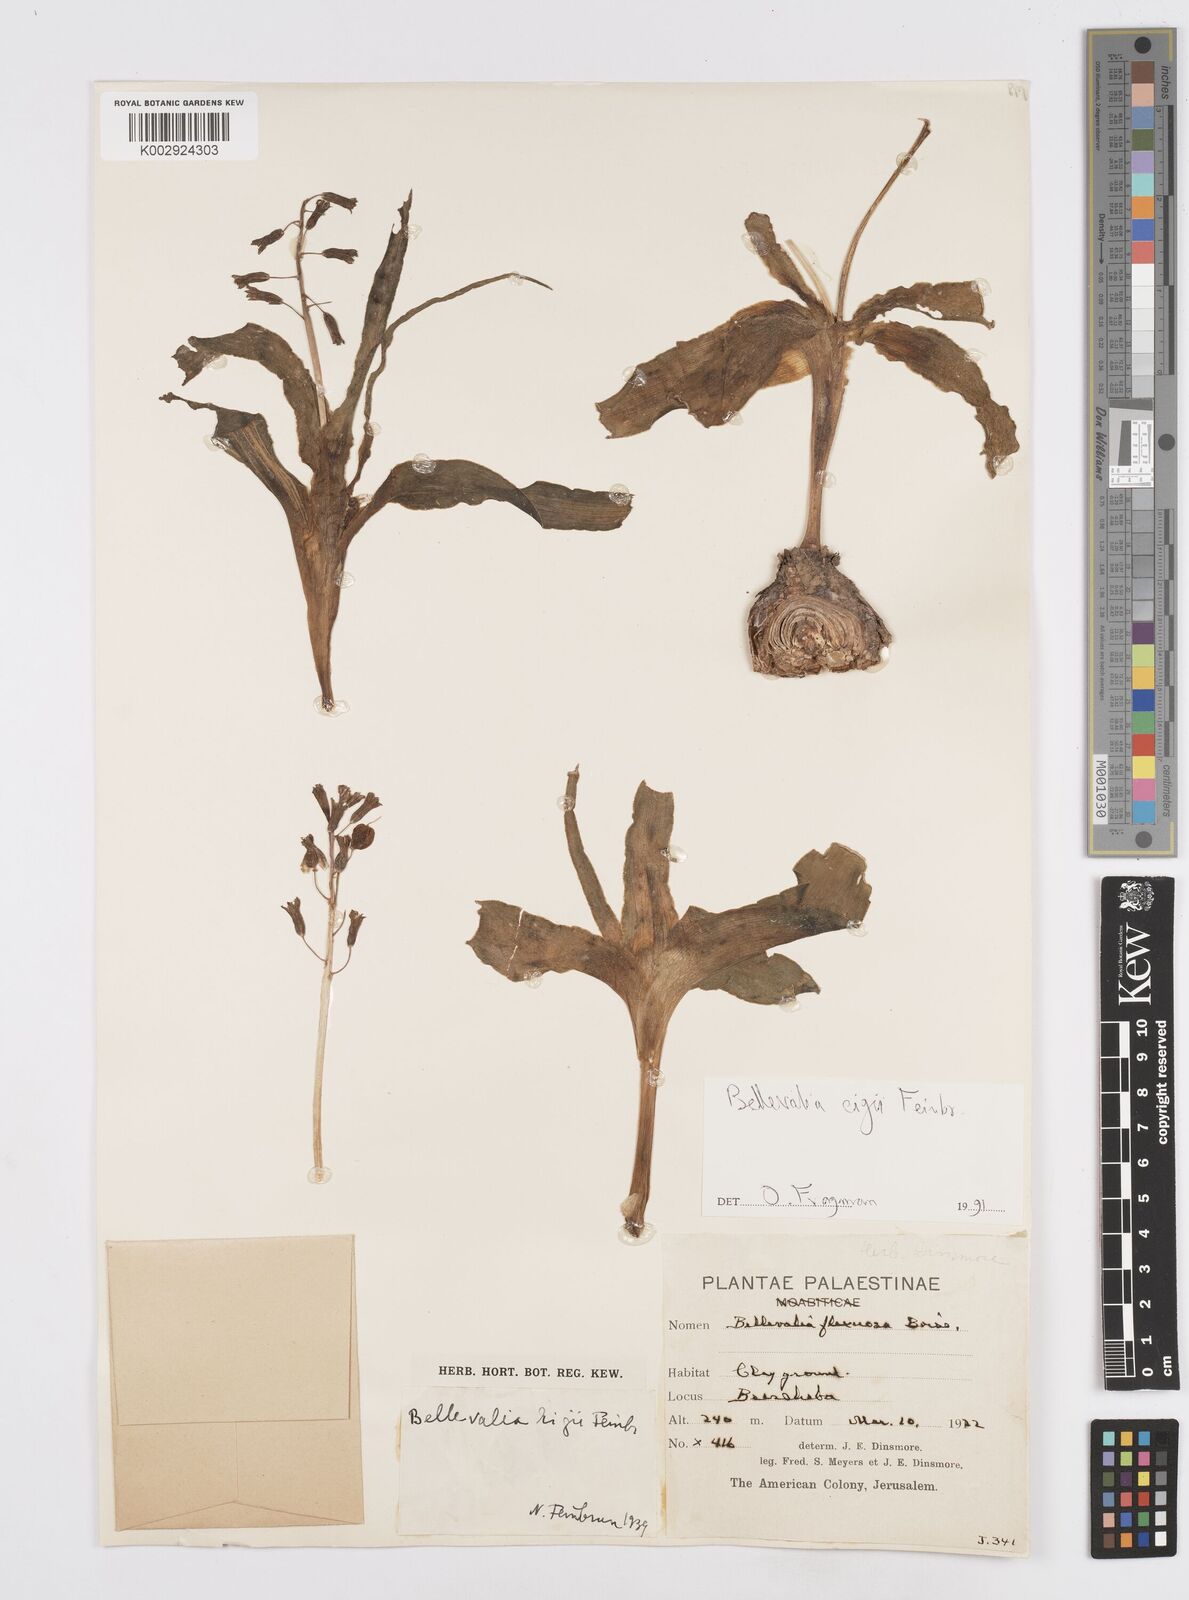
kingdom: Plantae
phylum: Tracheophyta
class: Liliopsida
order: Asparagales
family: Asparagaceae
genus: Bellevalia
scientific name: Bellevalia eigii
